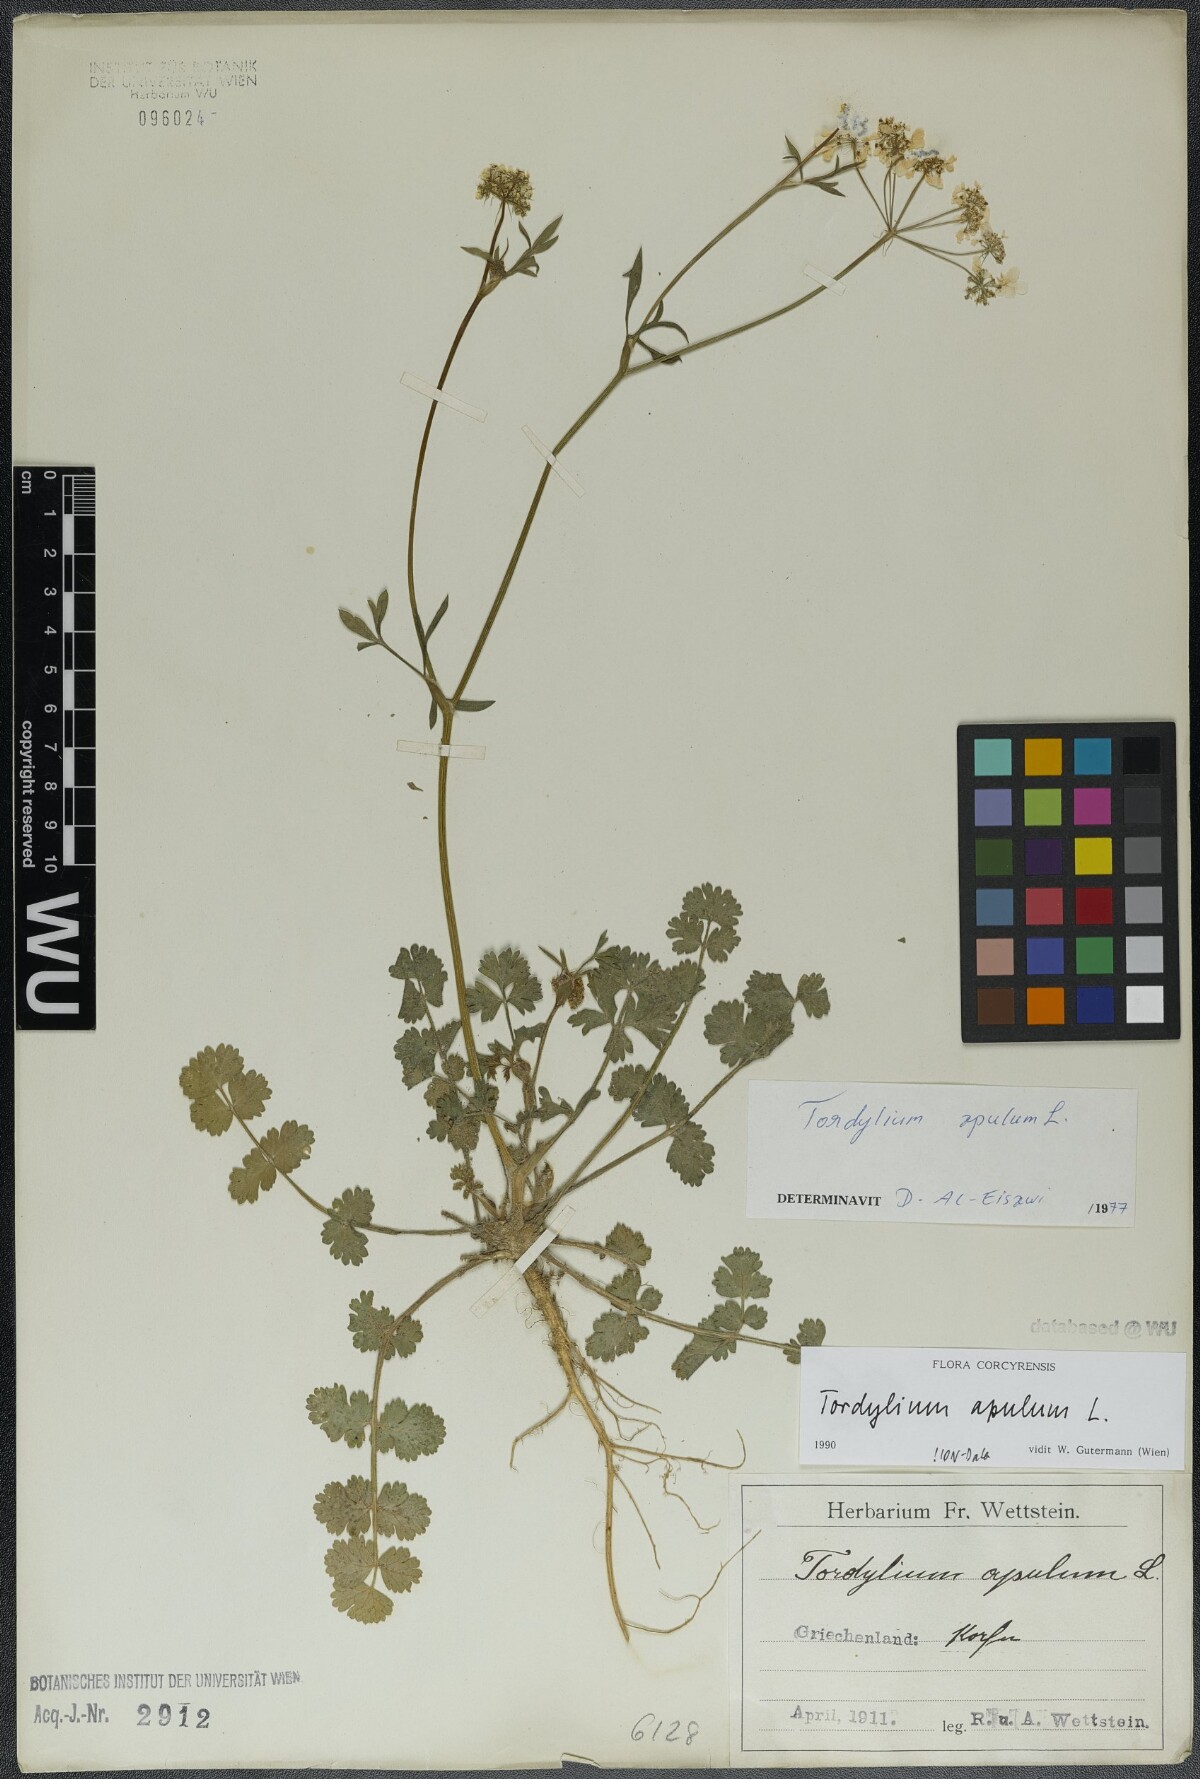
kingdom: Plantae
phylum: Tracheophyta
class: Magnoliopsida
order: Apiales
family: Apiaceae
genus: Tordylium
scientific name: Tordylium apulum
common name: Mediterranean hartwort
